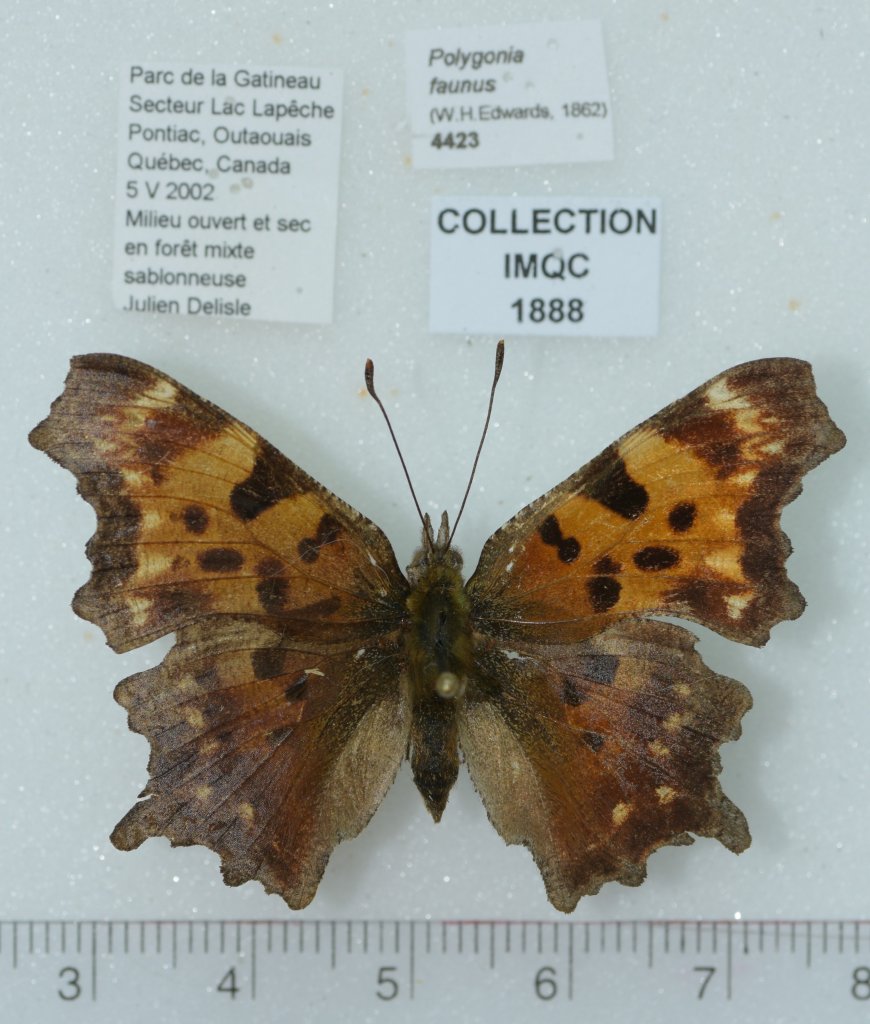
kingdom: Animalia
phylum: Arthropoda
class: Insecta
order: Lepidoptera
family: Nymphalidae
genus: Polygonia
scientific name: Polygonia faunus
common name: Green Comma
